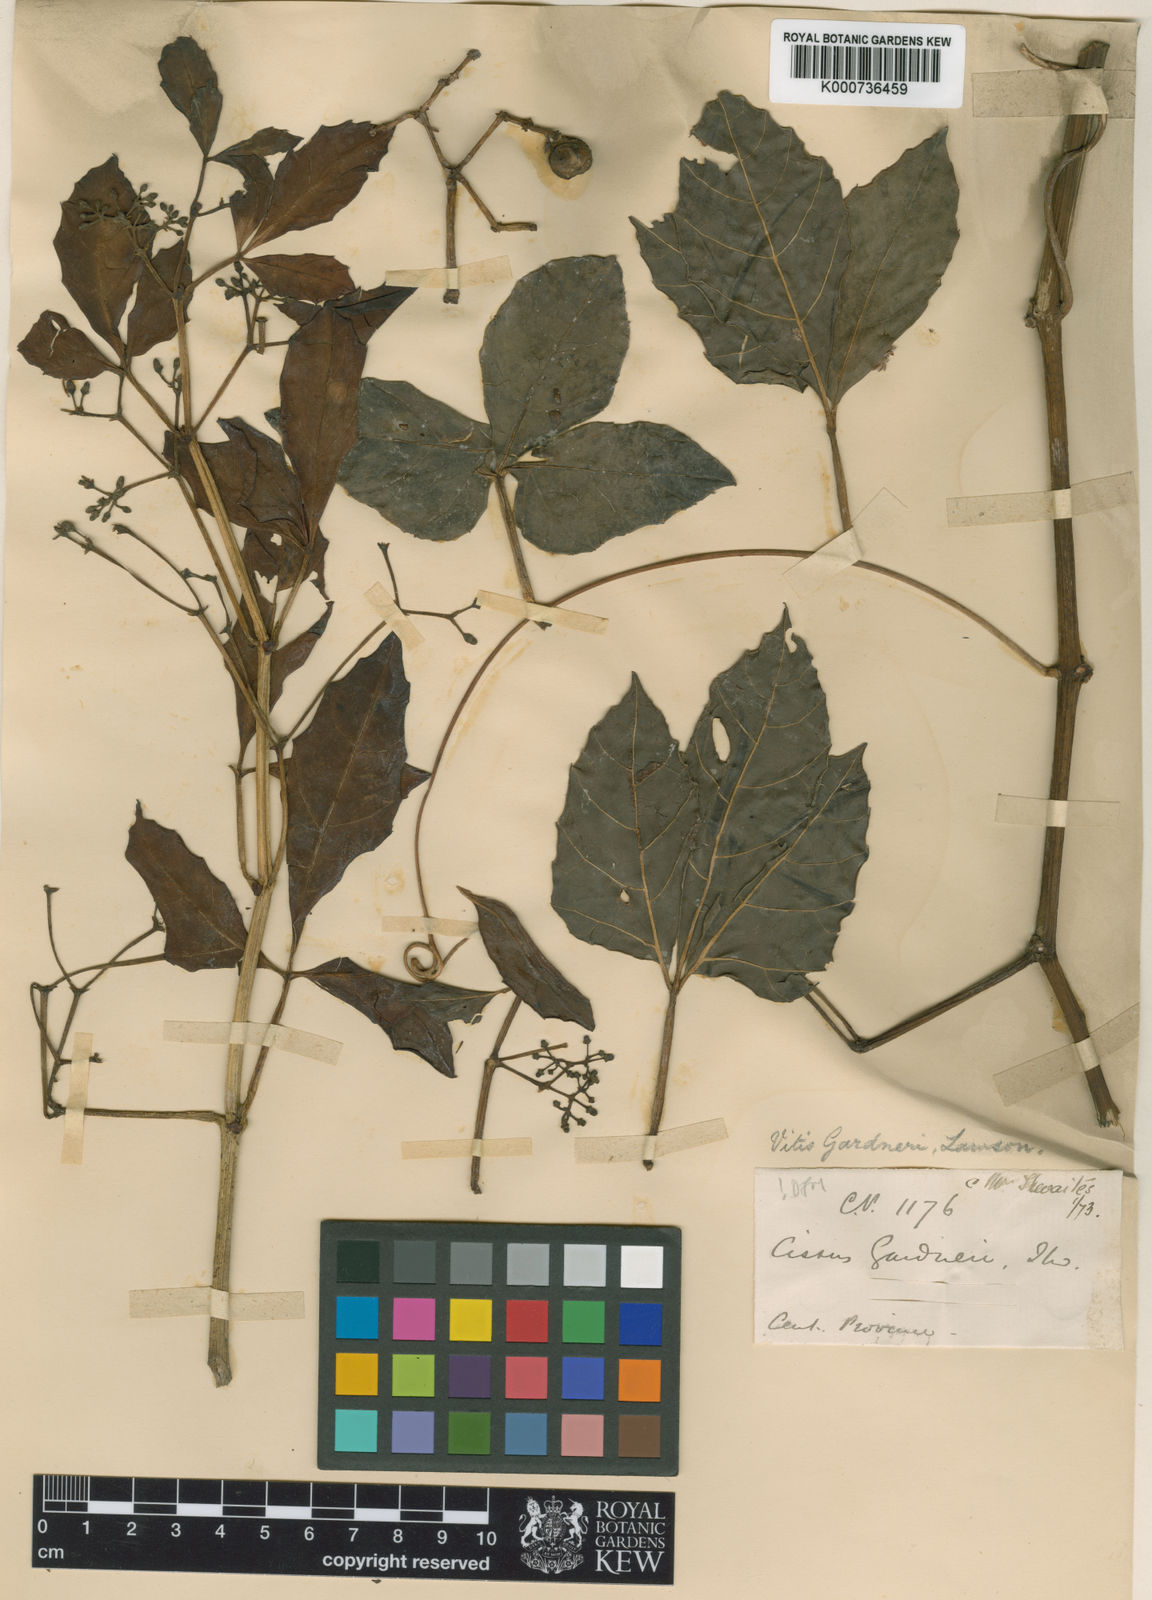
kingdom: Plantae
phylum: Tracheophyta
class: Magnoliopsida
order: Vitales
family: Vitaceae
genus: Cissus
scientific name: Cissus gardneri
